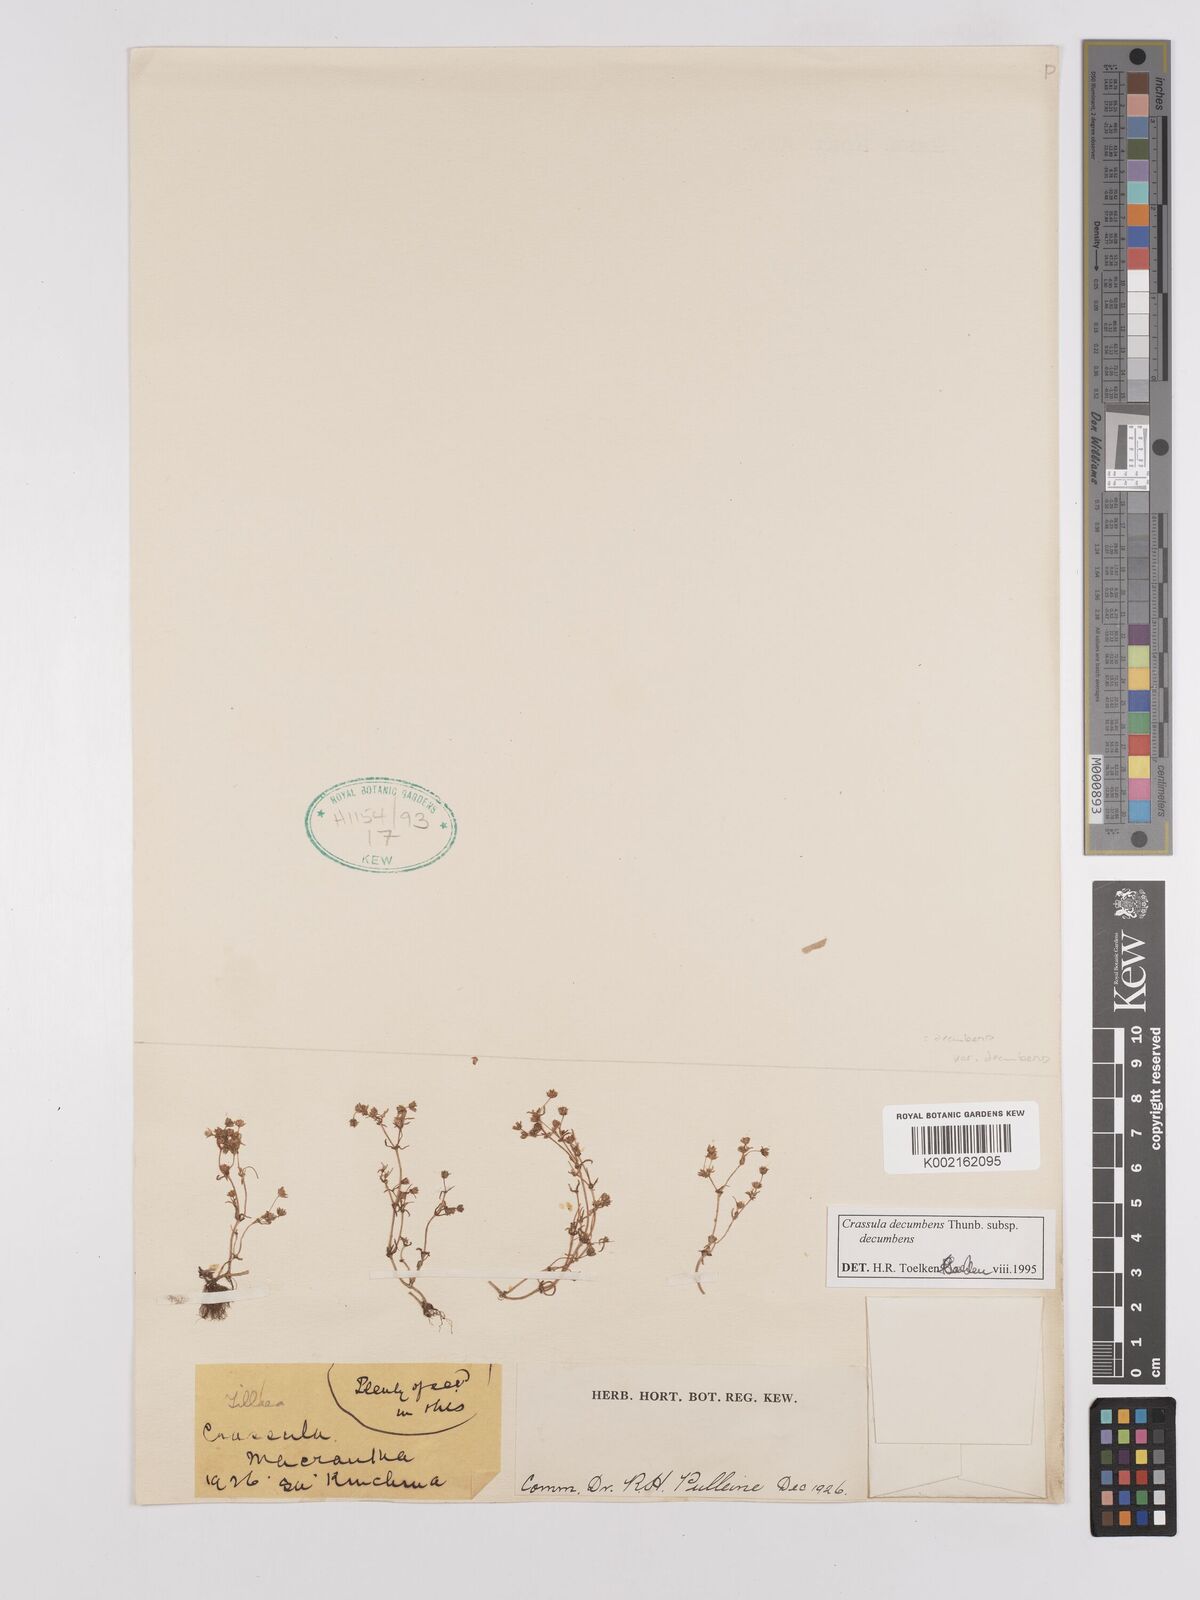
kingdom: Plantae
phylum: Tracheophyta
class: Magnoliopsida
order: Saxifragales
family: Crassulaceae
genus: Crassula
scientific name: Crassula decumbens
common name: Scilly pigmyweed
